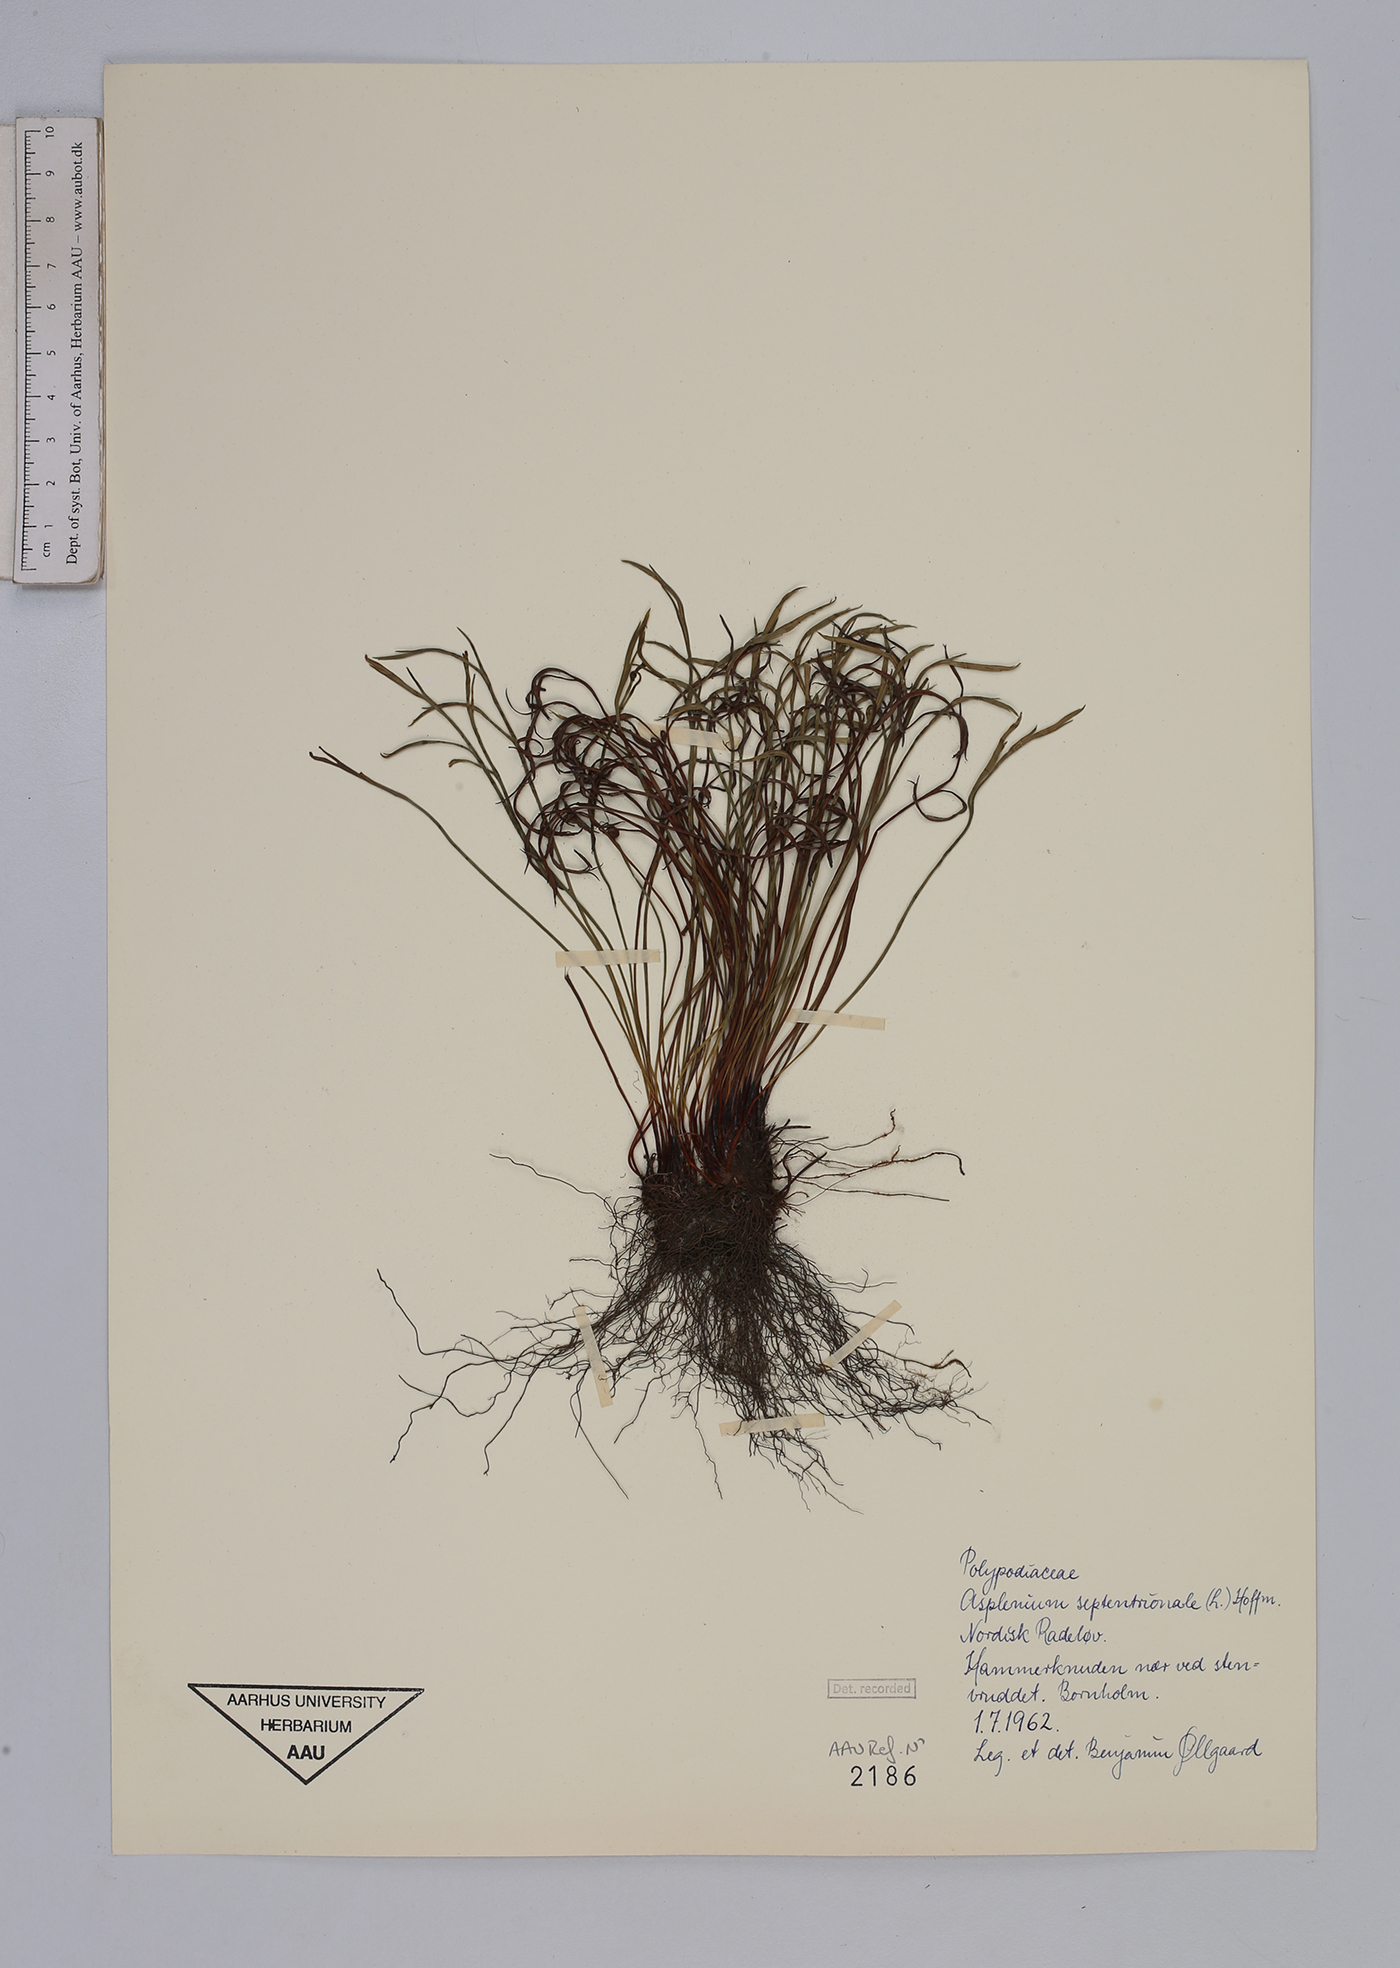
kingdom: Plantae
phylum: Tracheophyta
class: Polypodiopsida
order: Polypodiales
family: Aspleniaceae
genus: Asplenium
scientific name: Asplenium septentrionale
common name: Forked spleenwort
